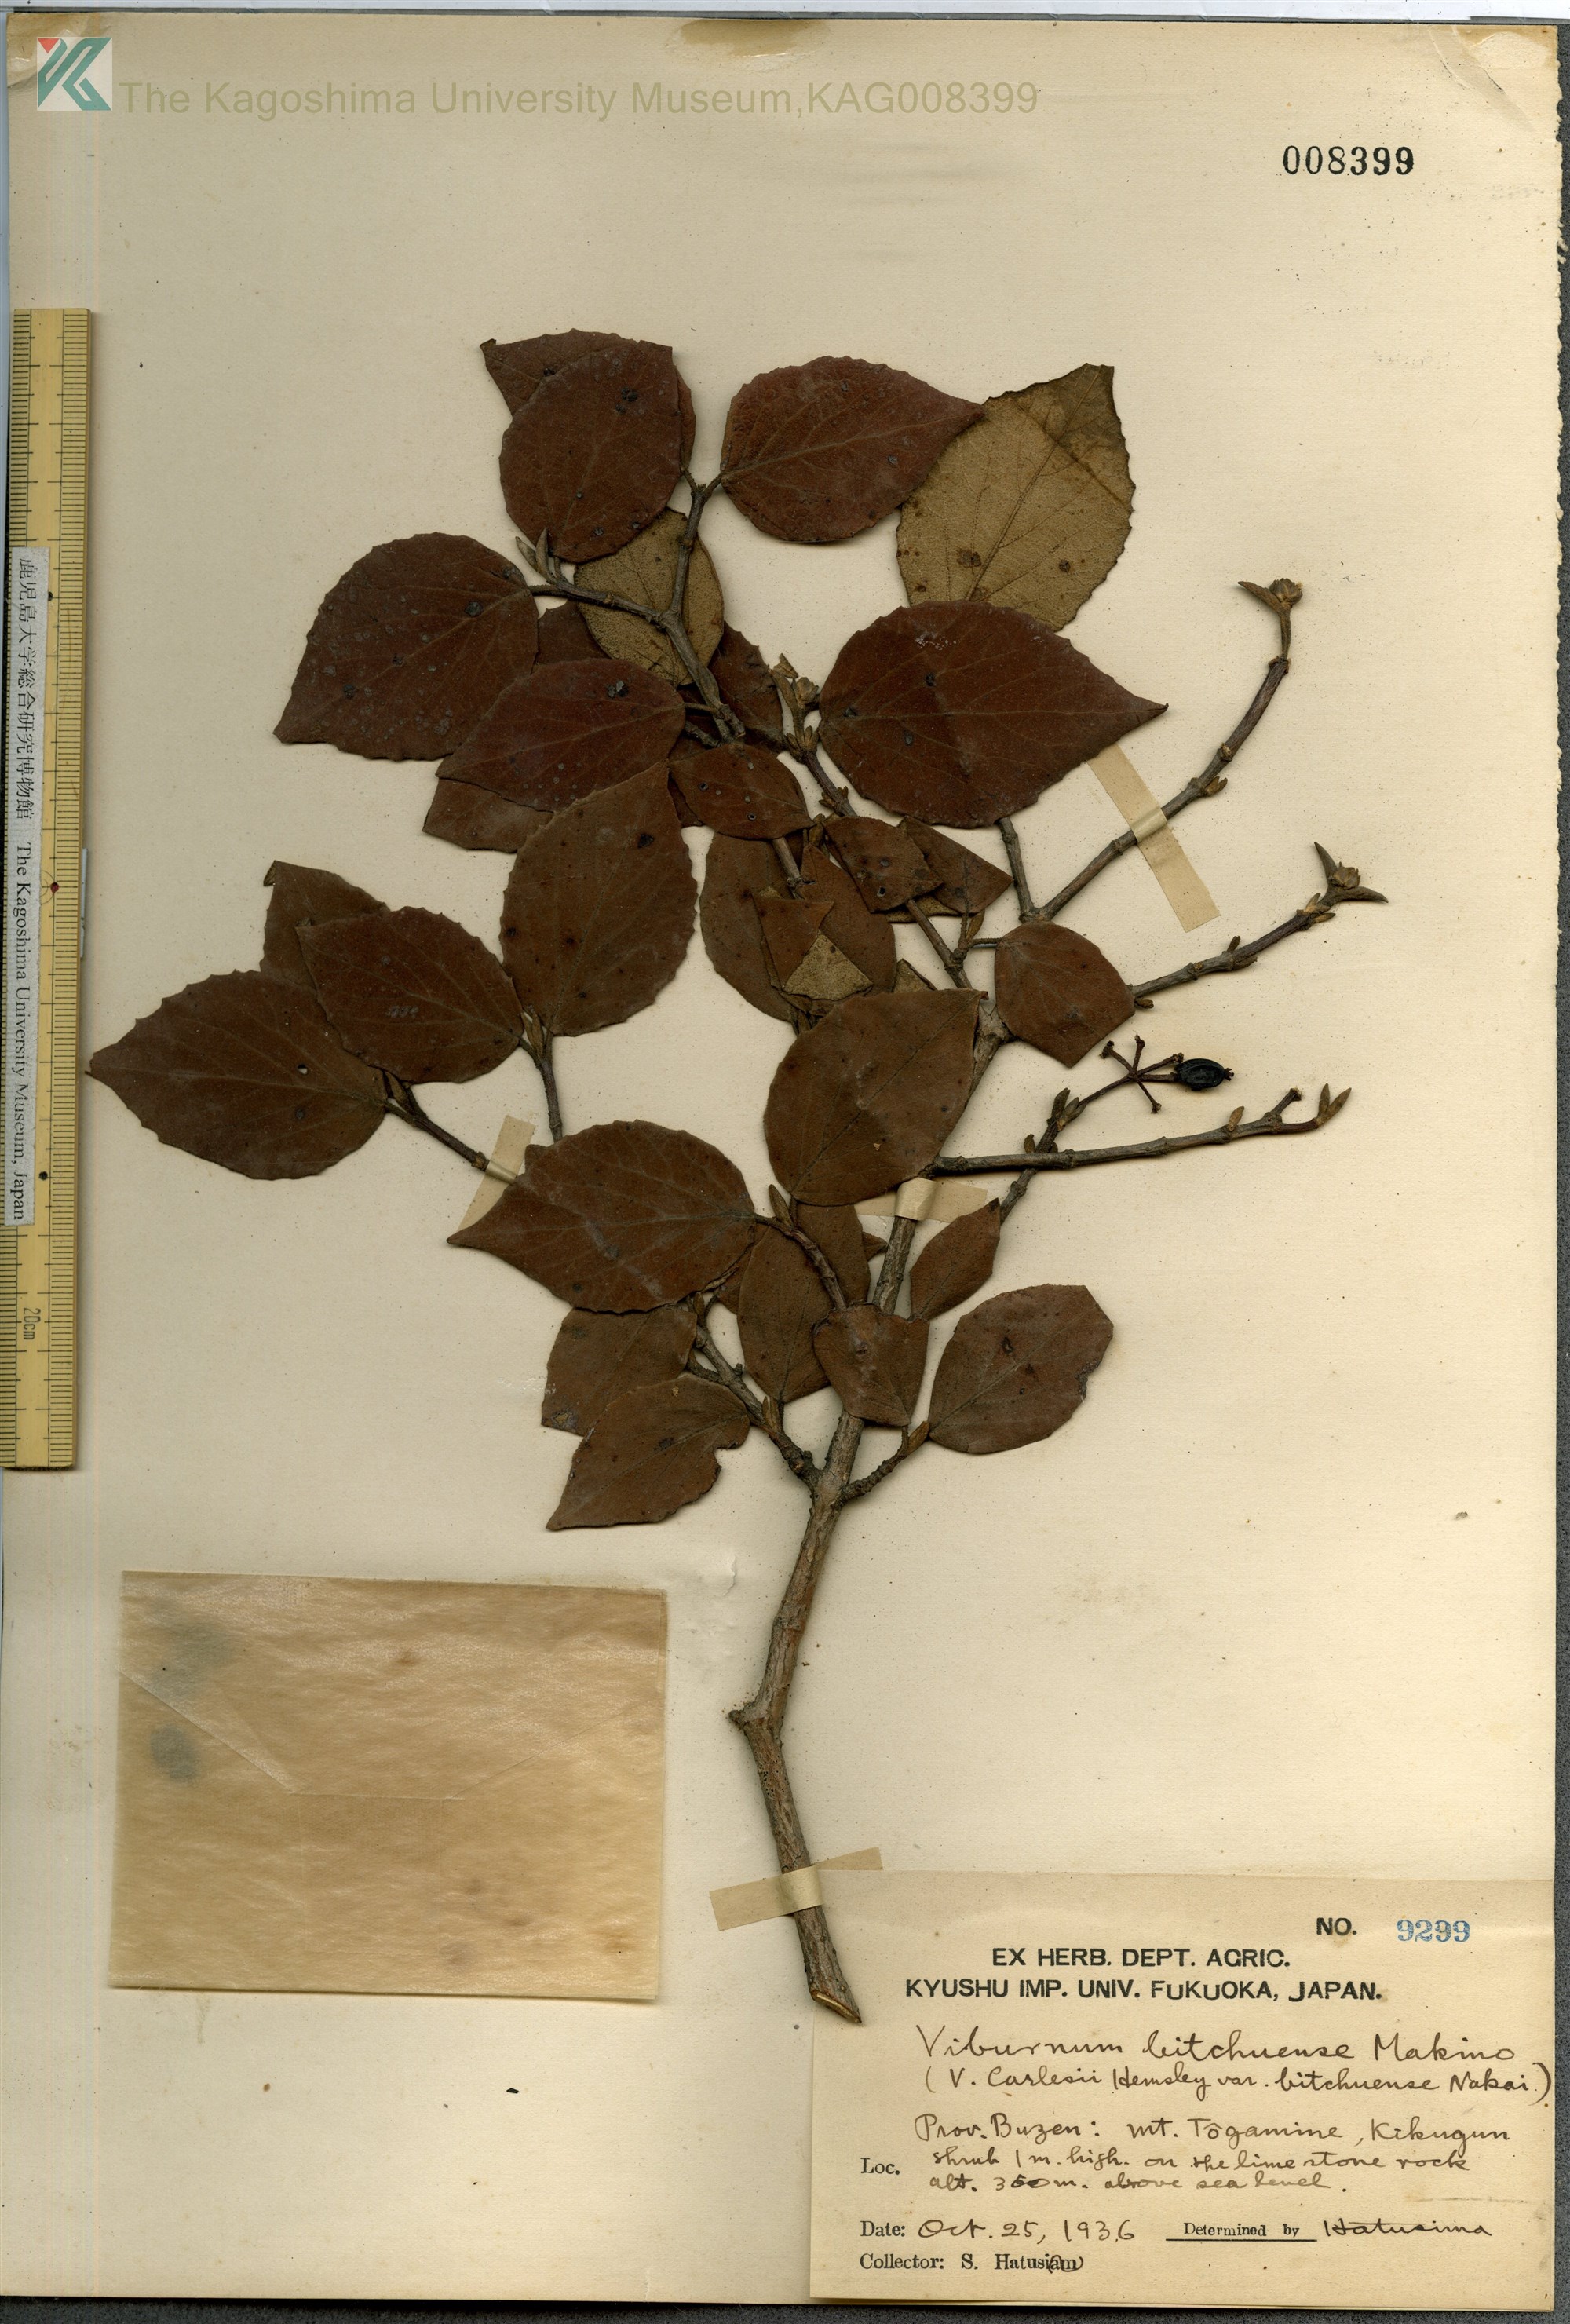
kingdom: Plantae
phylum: Tracheophyta
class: Magnoliopsida
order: Dipsacales
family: Viburnaceae
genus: Viburnum
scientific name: Viburnum carlesii
